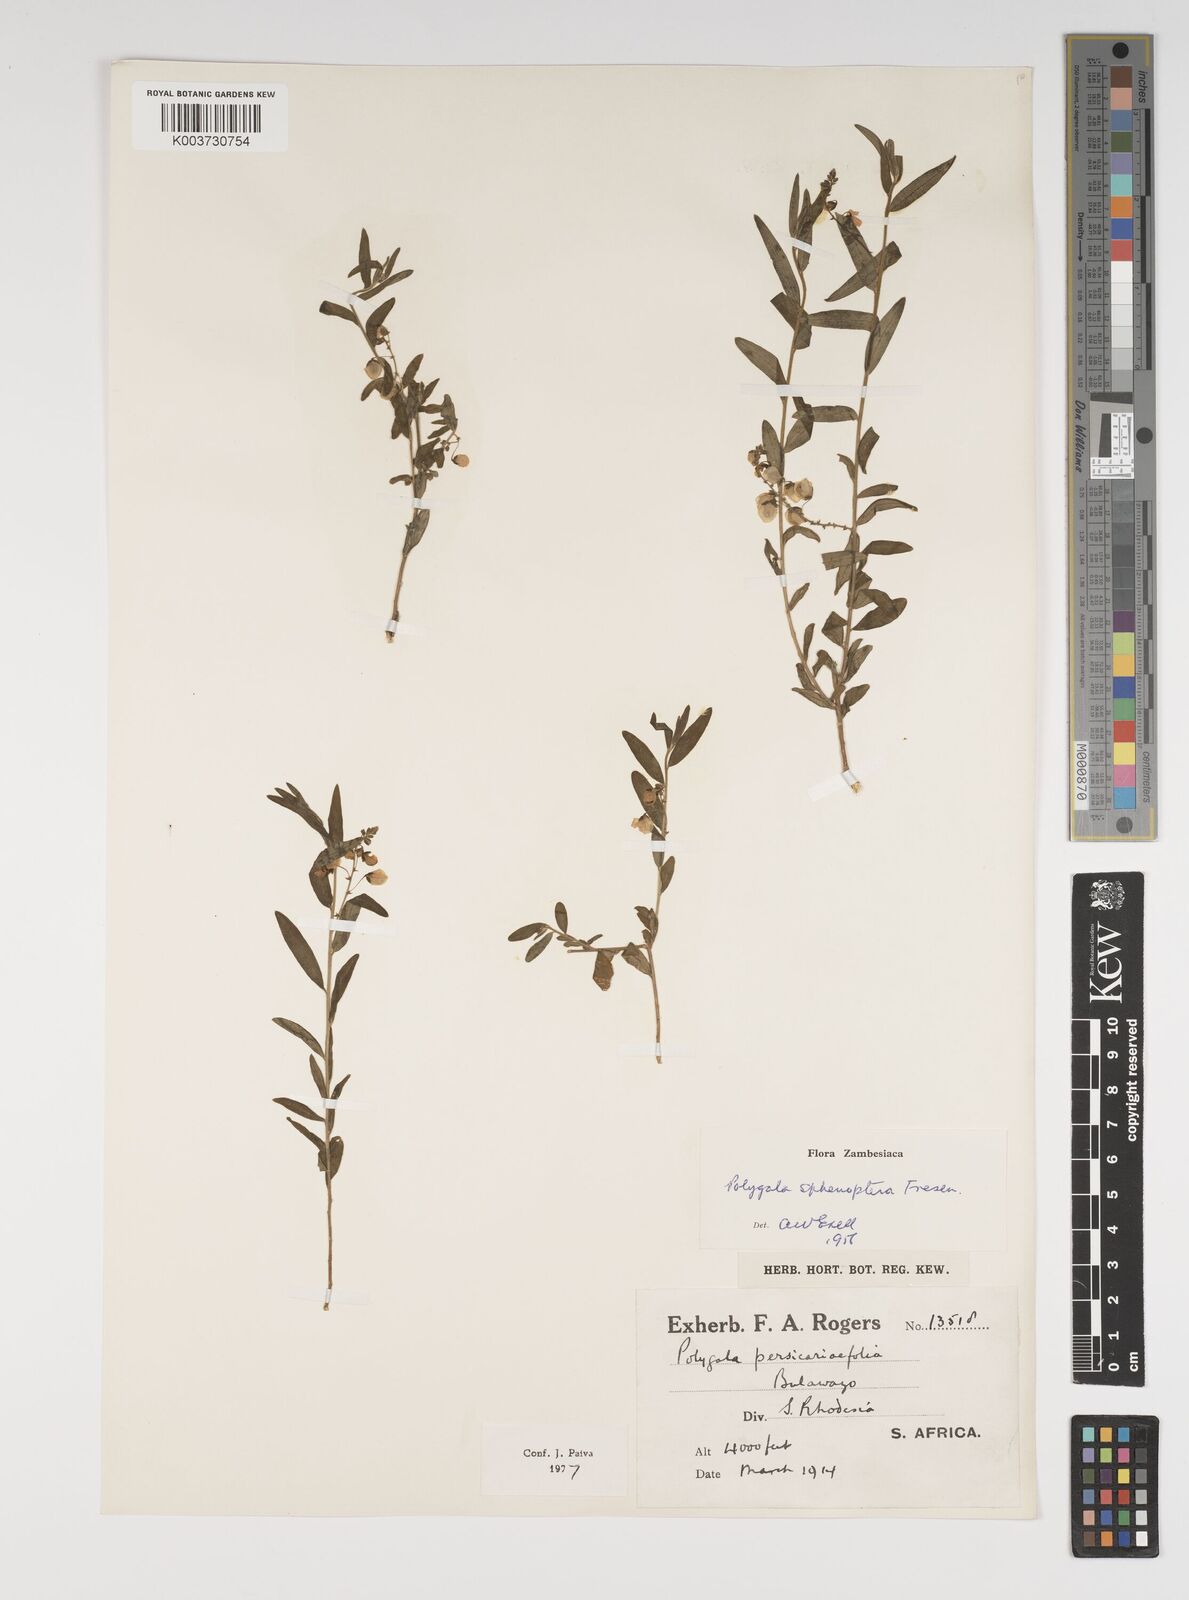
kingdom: Plantae
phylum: Tracheophyta
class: Magnoliopsida
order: Fabales
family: Polygalaceae
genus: Polygala
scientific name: Polygala sphenoptera
